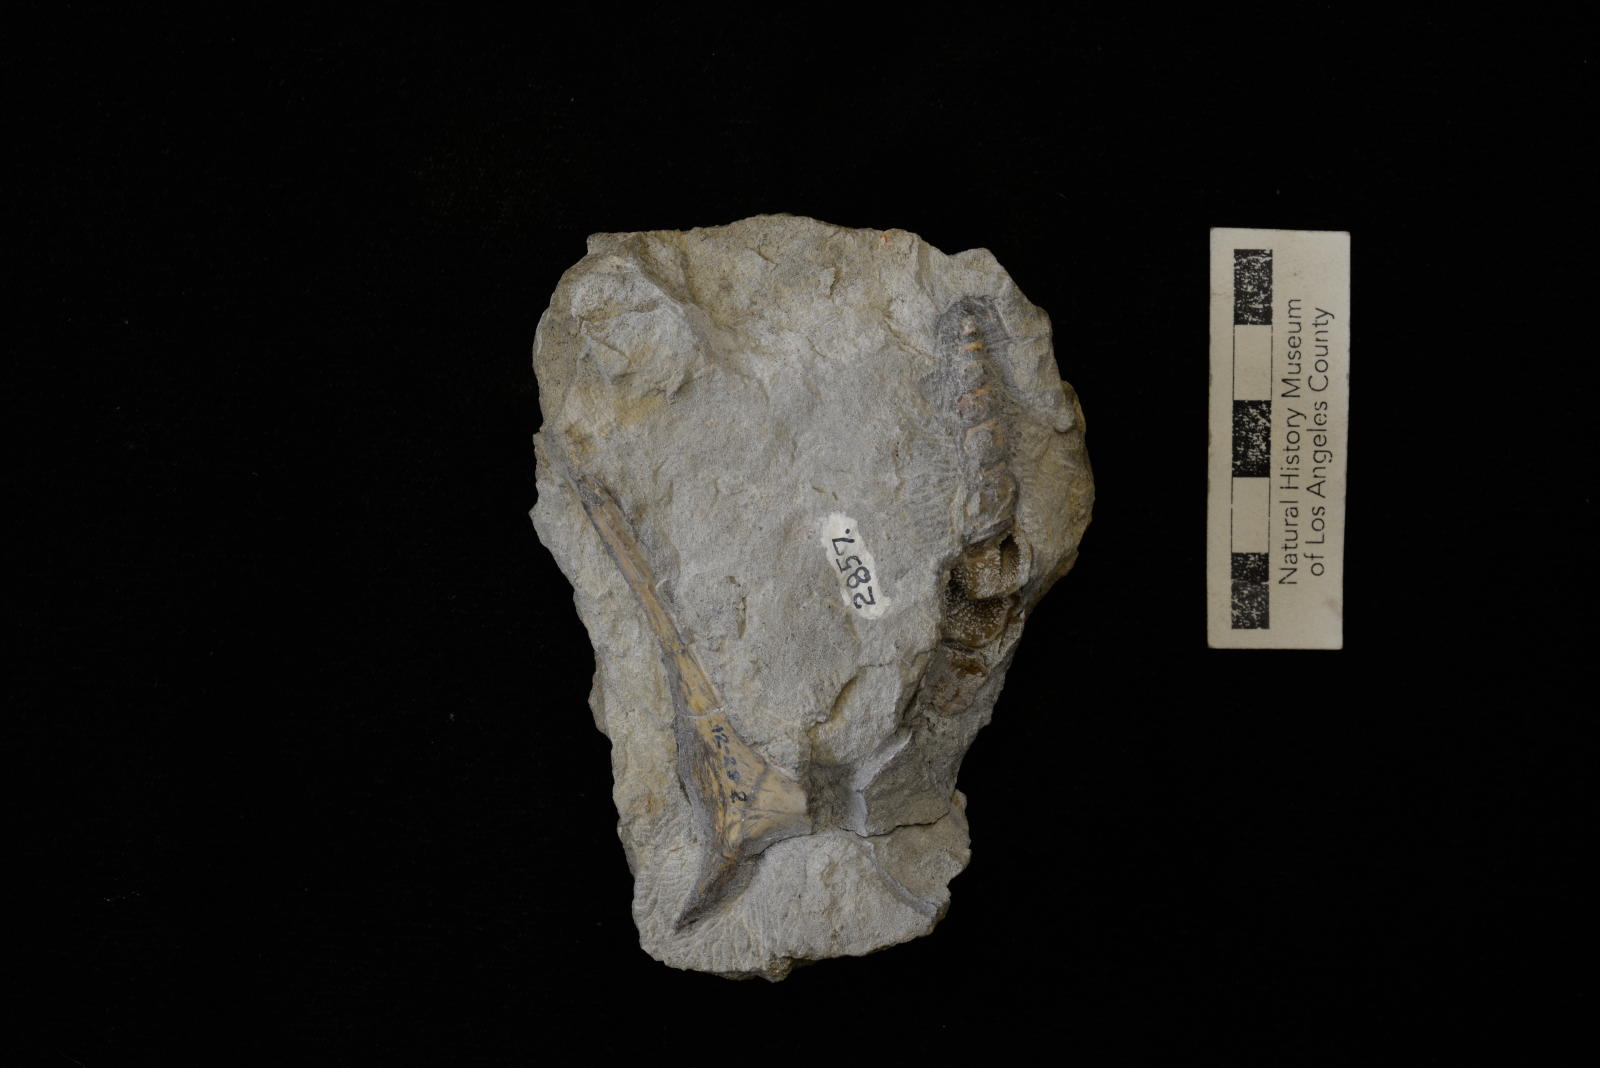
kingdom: Animalia
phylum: Mollusca
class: Gastropoda
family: Nerineidae
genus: Nerinea
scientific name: Nerinea stewarti
